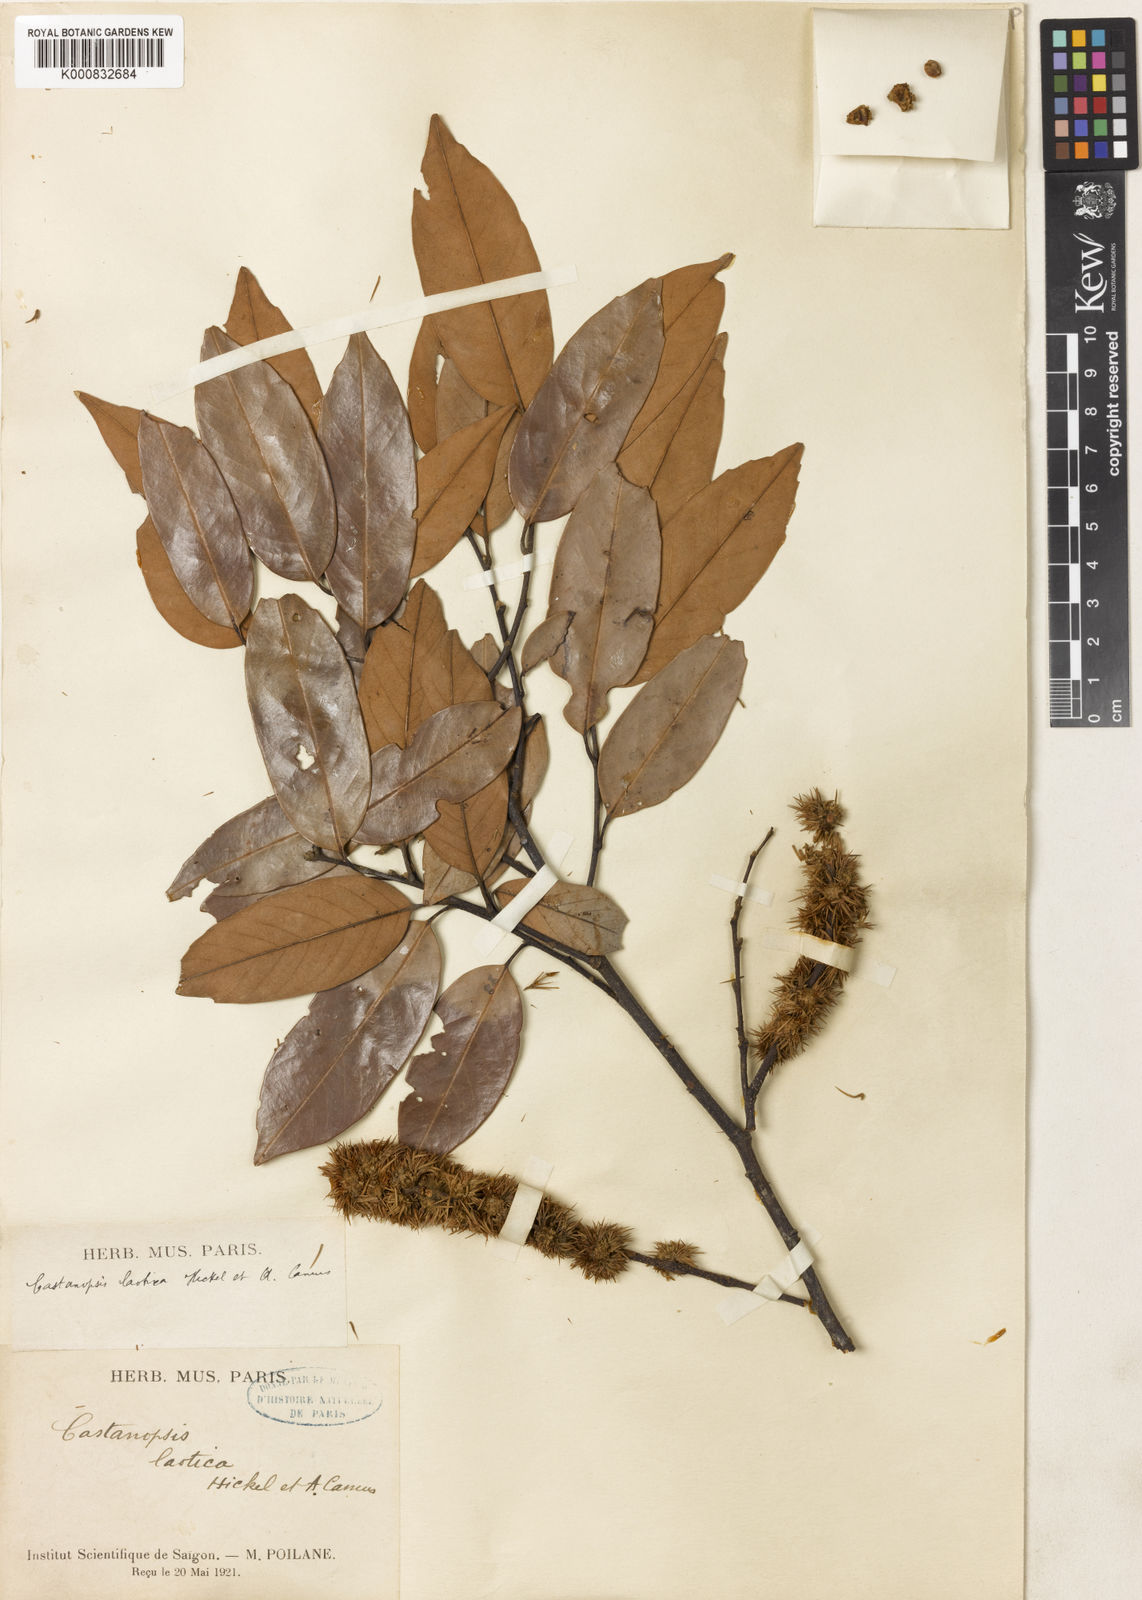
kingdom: Plantae
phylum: Tracheophyta
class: Magnoliopsida
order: Fagales
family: Fagaceae
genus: Castanopsis
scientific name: Castanopsis purpurella
